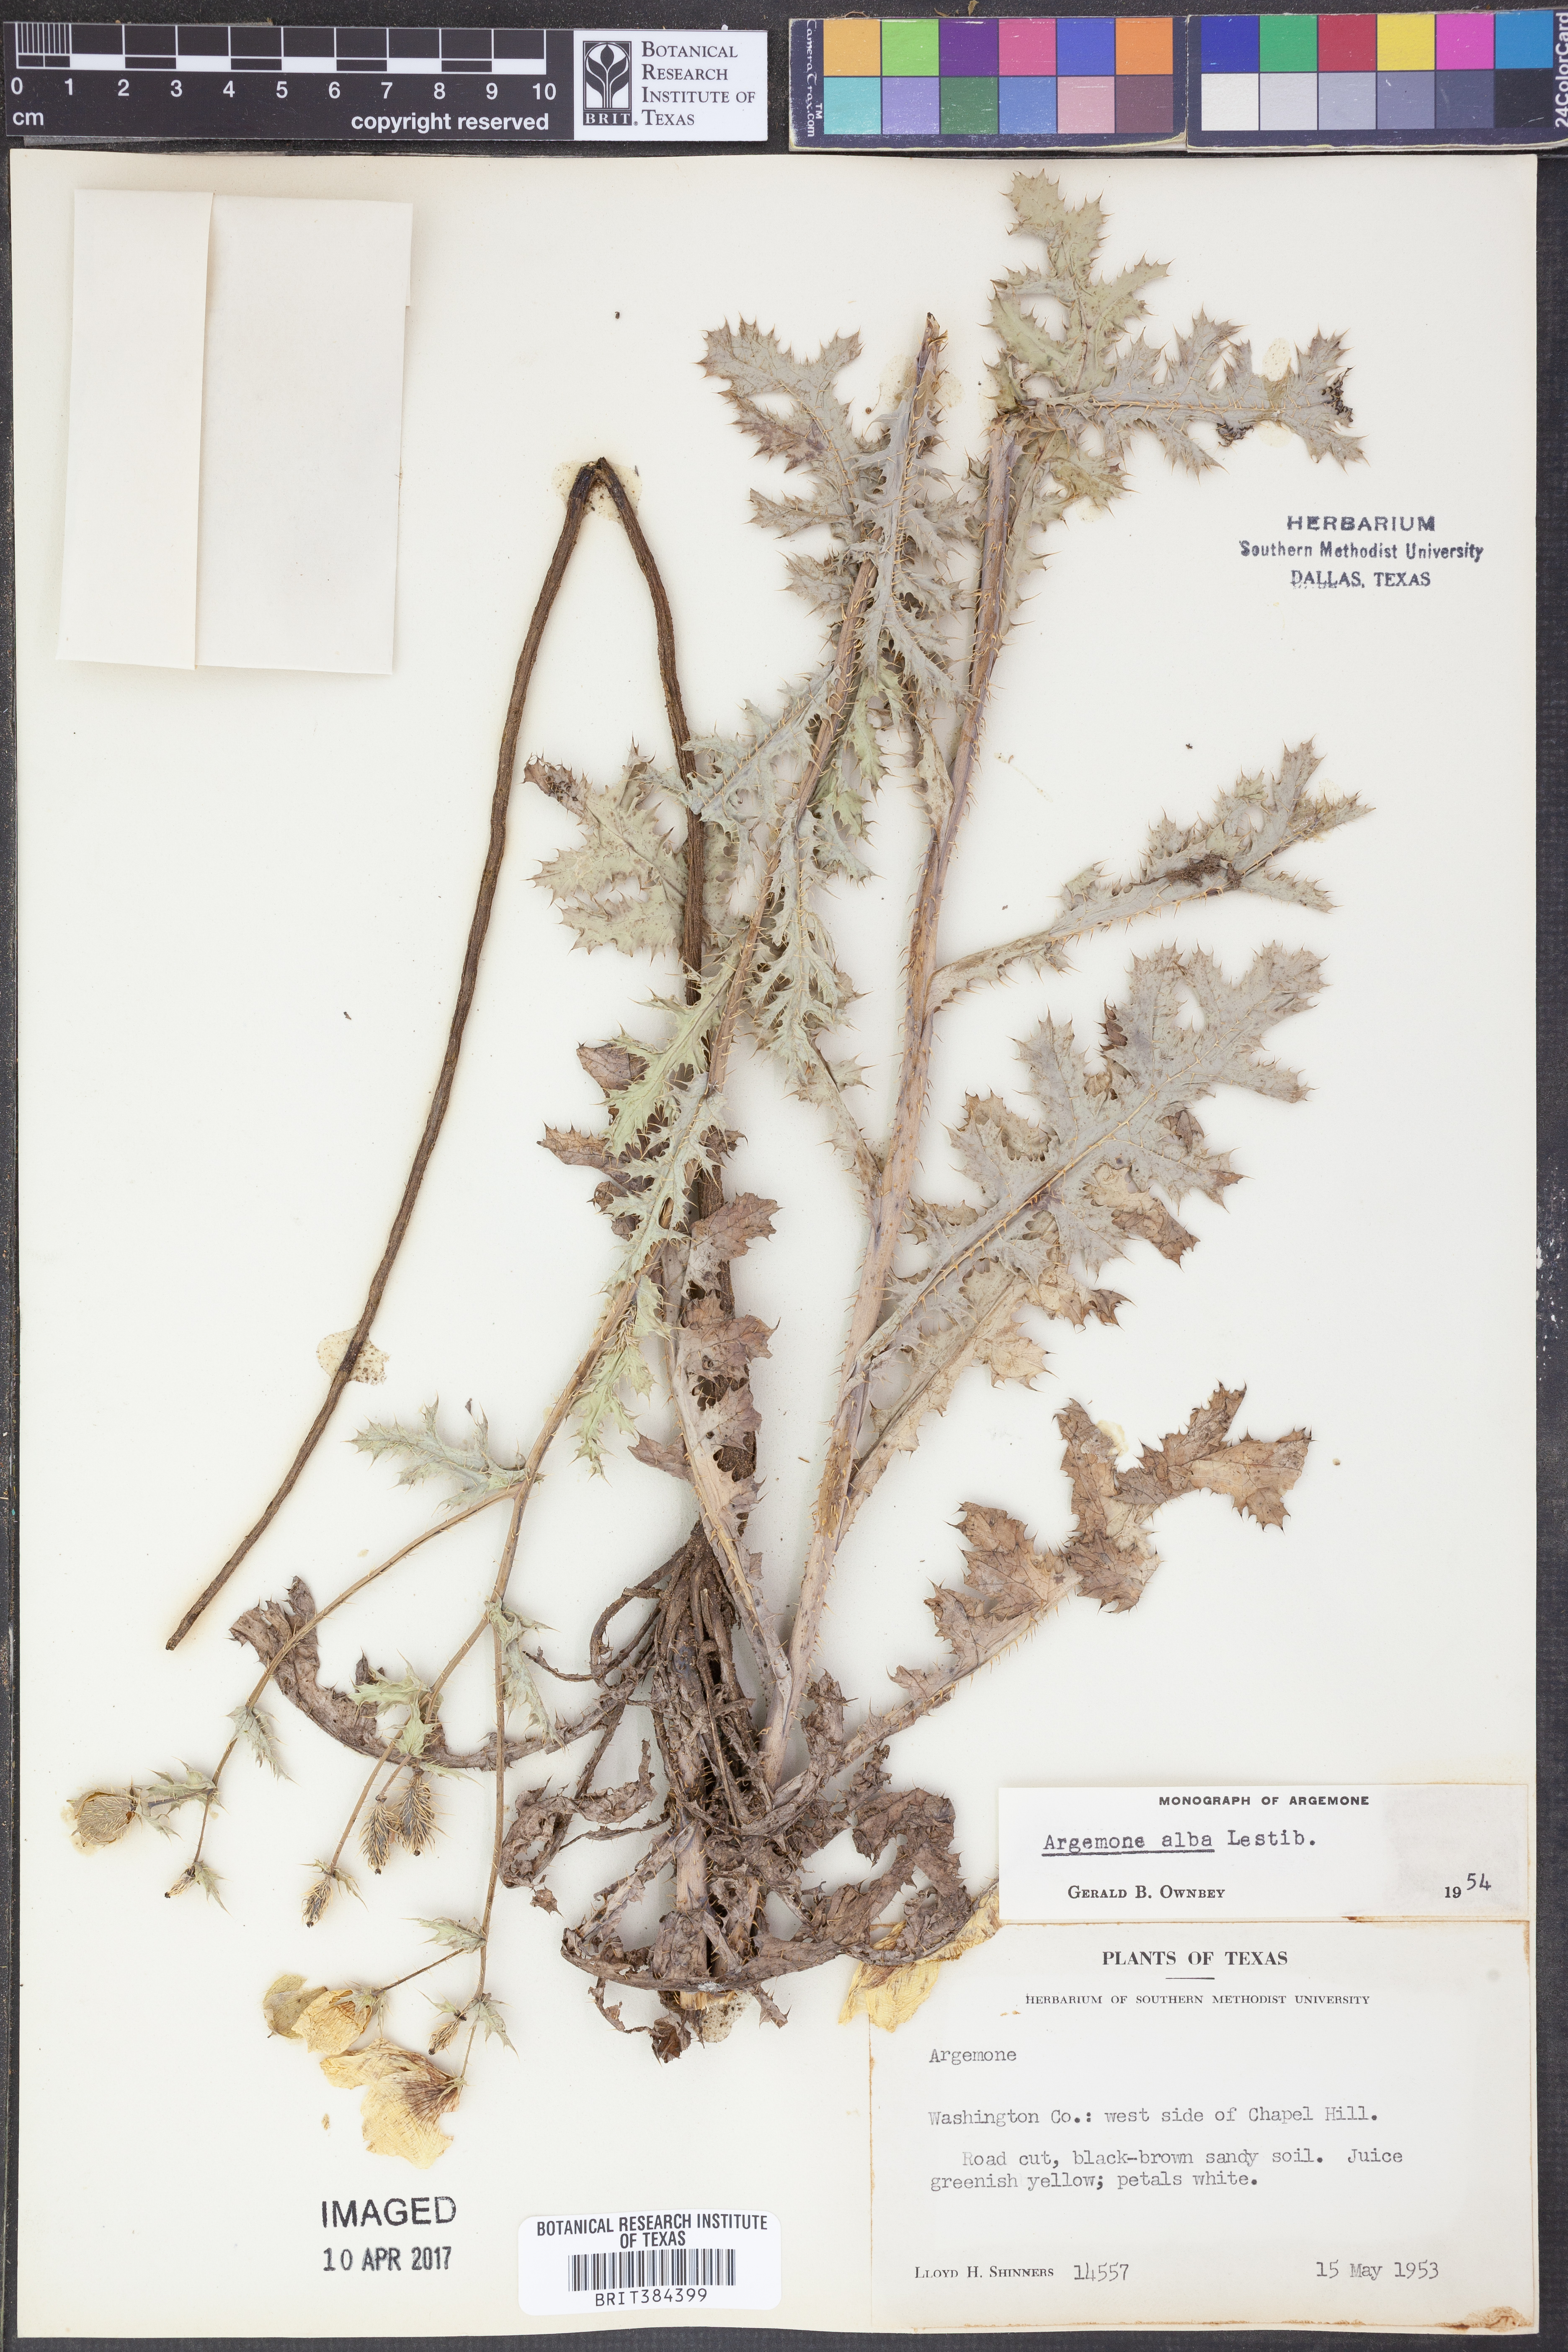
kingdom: Plantae
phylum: Tracheophyta
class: Magnoliopsida
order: Ranunculales
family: Papaveraceae
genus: Argemone
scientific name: Argemone albiflora
